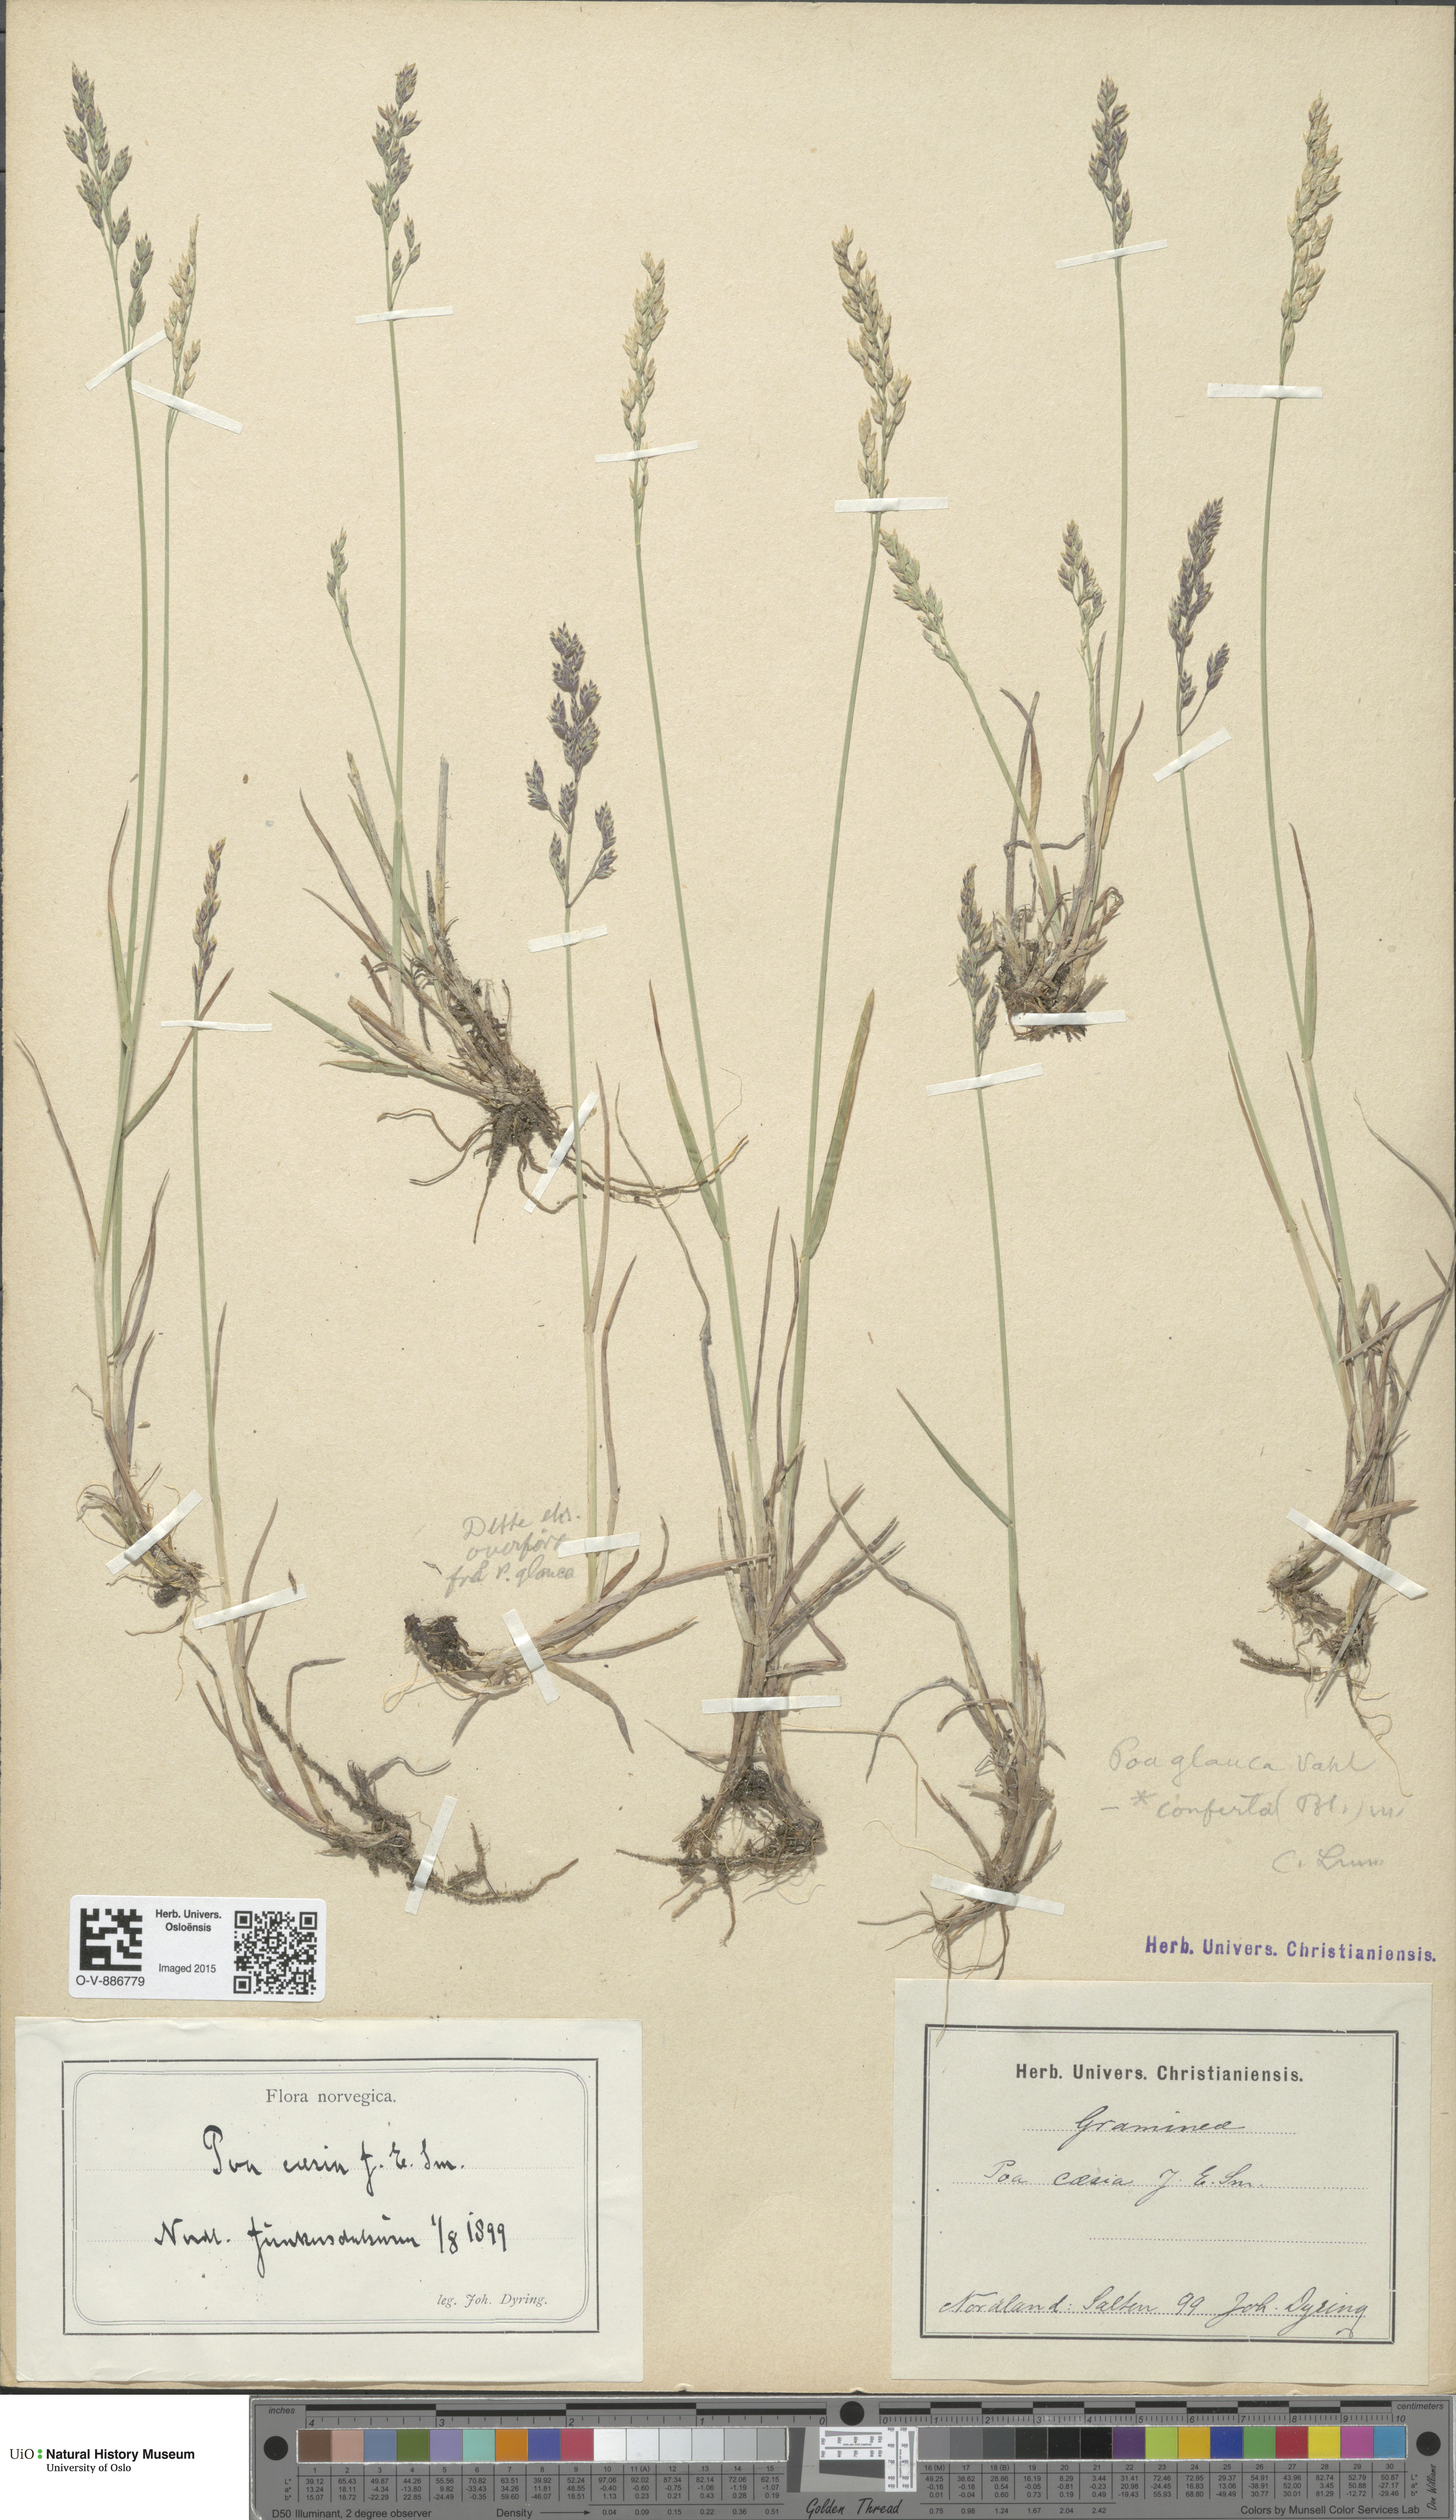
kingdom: Plantae
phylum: Tracheophyta
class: Liliopsida
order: Poales
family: Poaceae
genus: Poa
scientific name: Poa glauca
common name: Glaucous bluegrass
